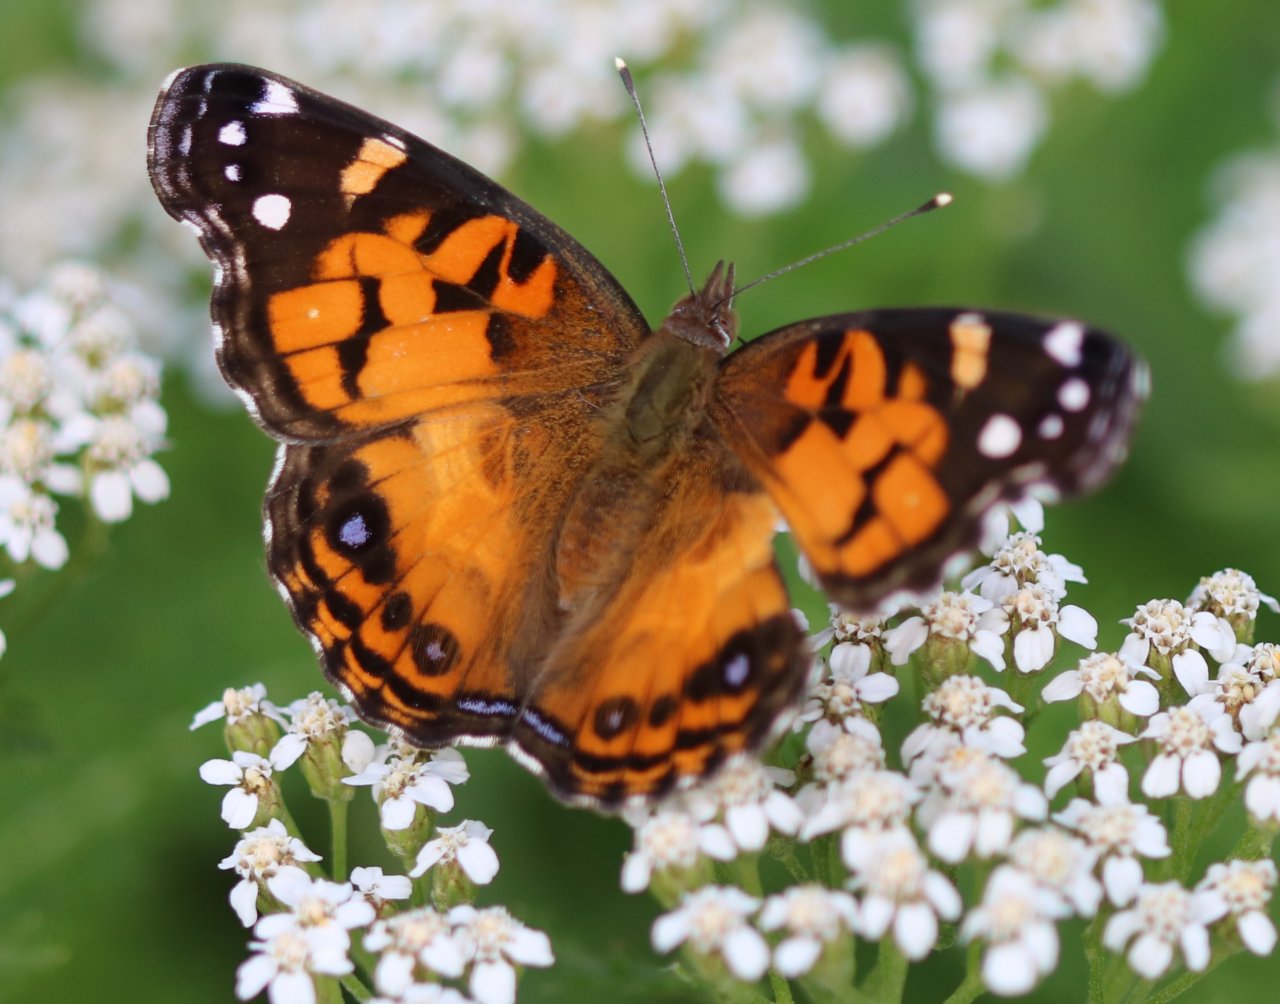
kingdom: Animalia
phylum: Arthropoda
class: Insecta
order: Lepidoptera
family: Nymphalidae
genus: Vanessa
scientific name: Vanessa virginiensis
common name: American Lady
